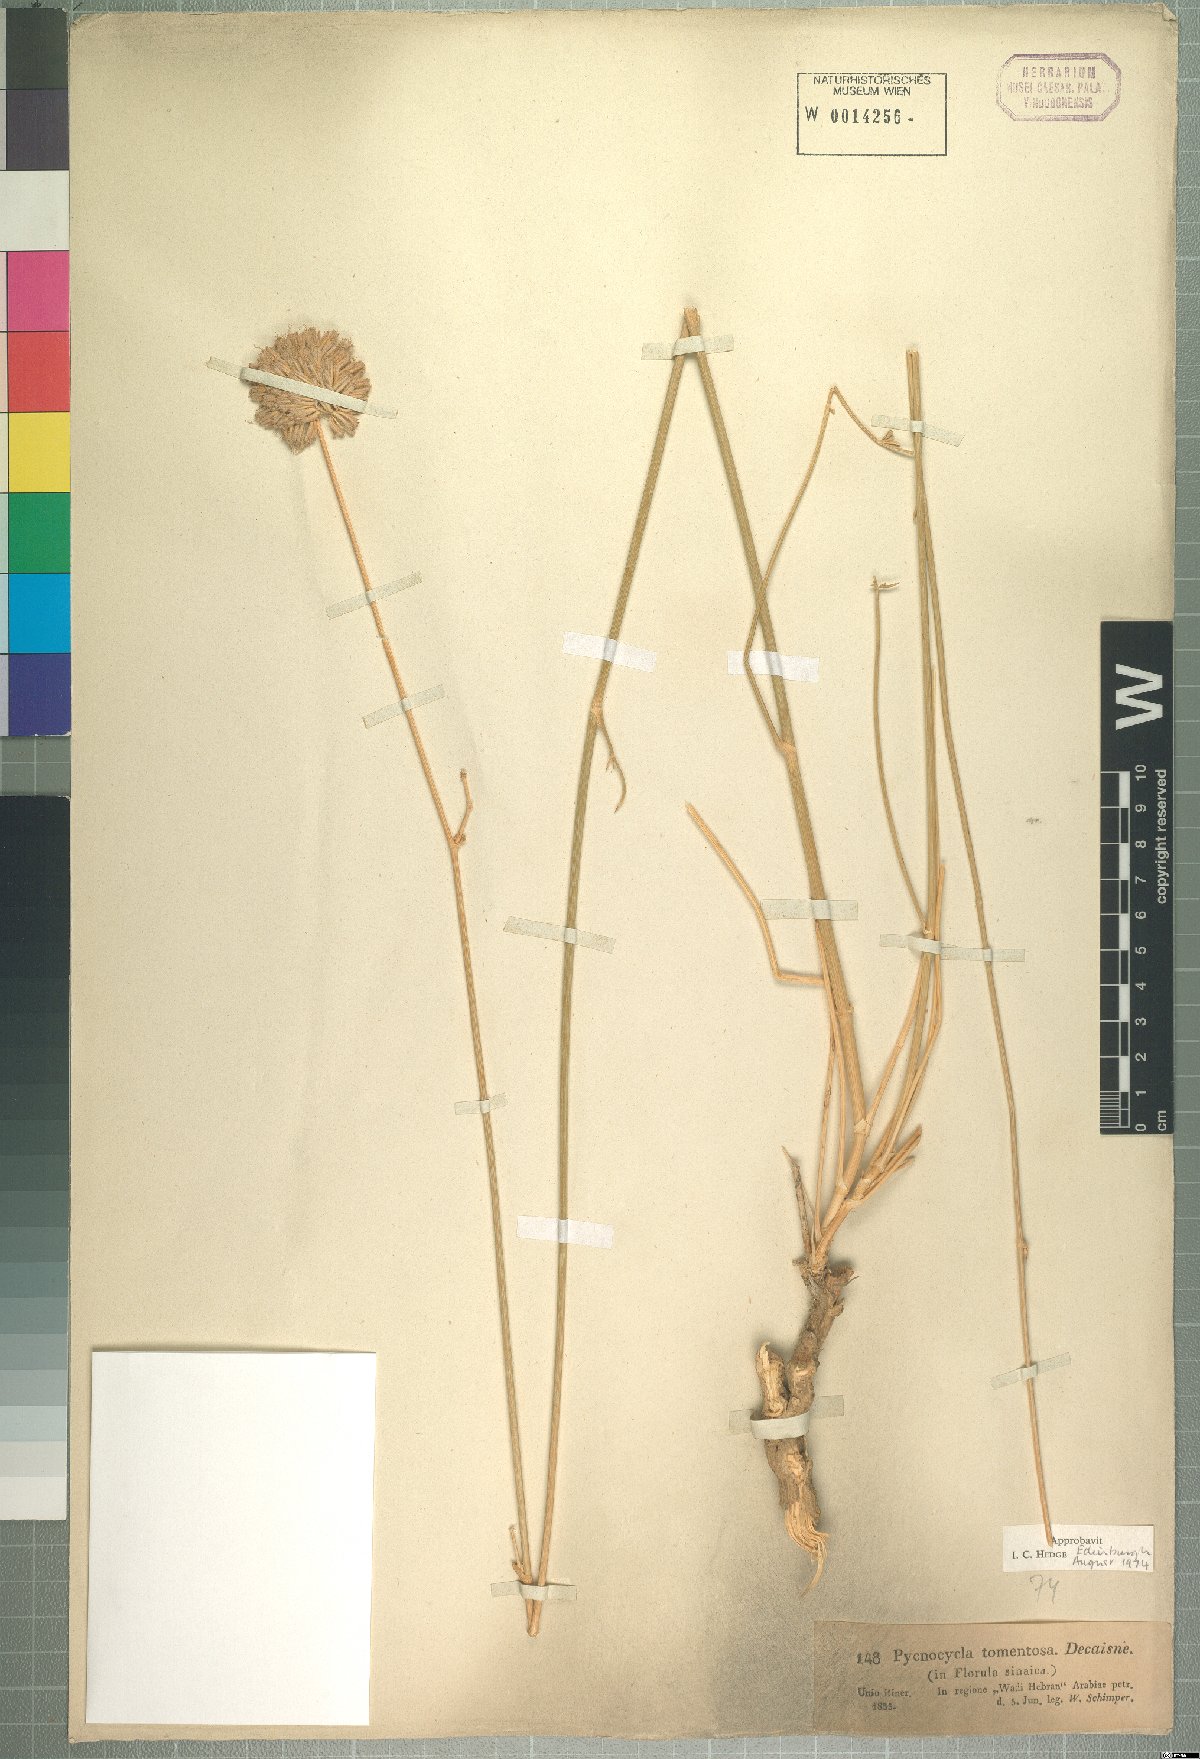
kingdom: Plantae
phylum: Tracheophyta
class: Magnoliopsida
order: Apiales
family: Apiaceae
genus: Pycnocycla
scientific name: Pycnocycla tomentosa
